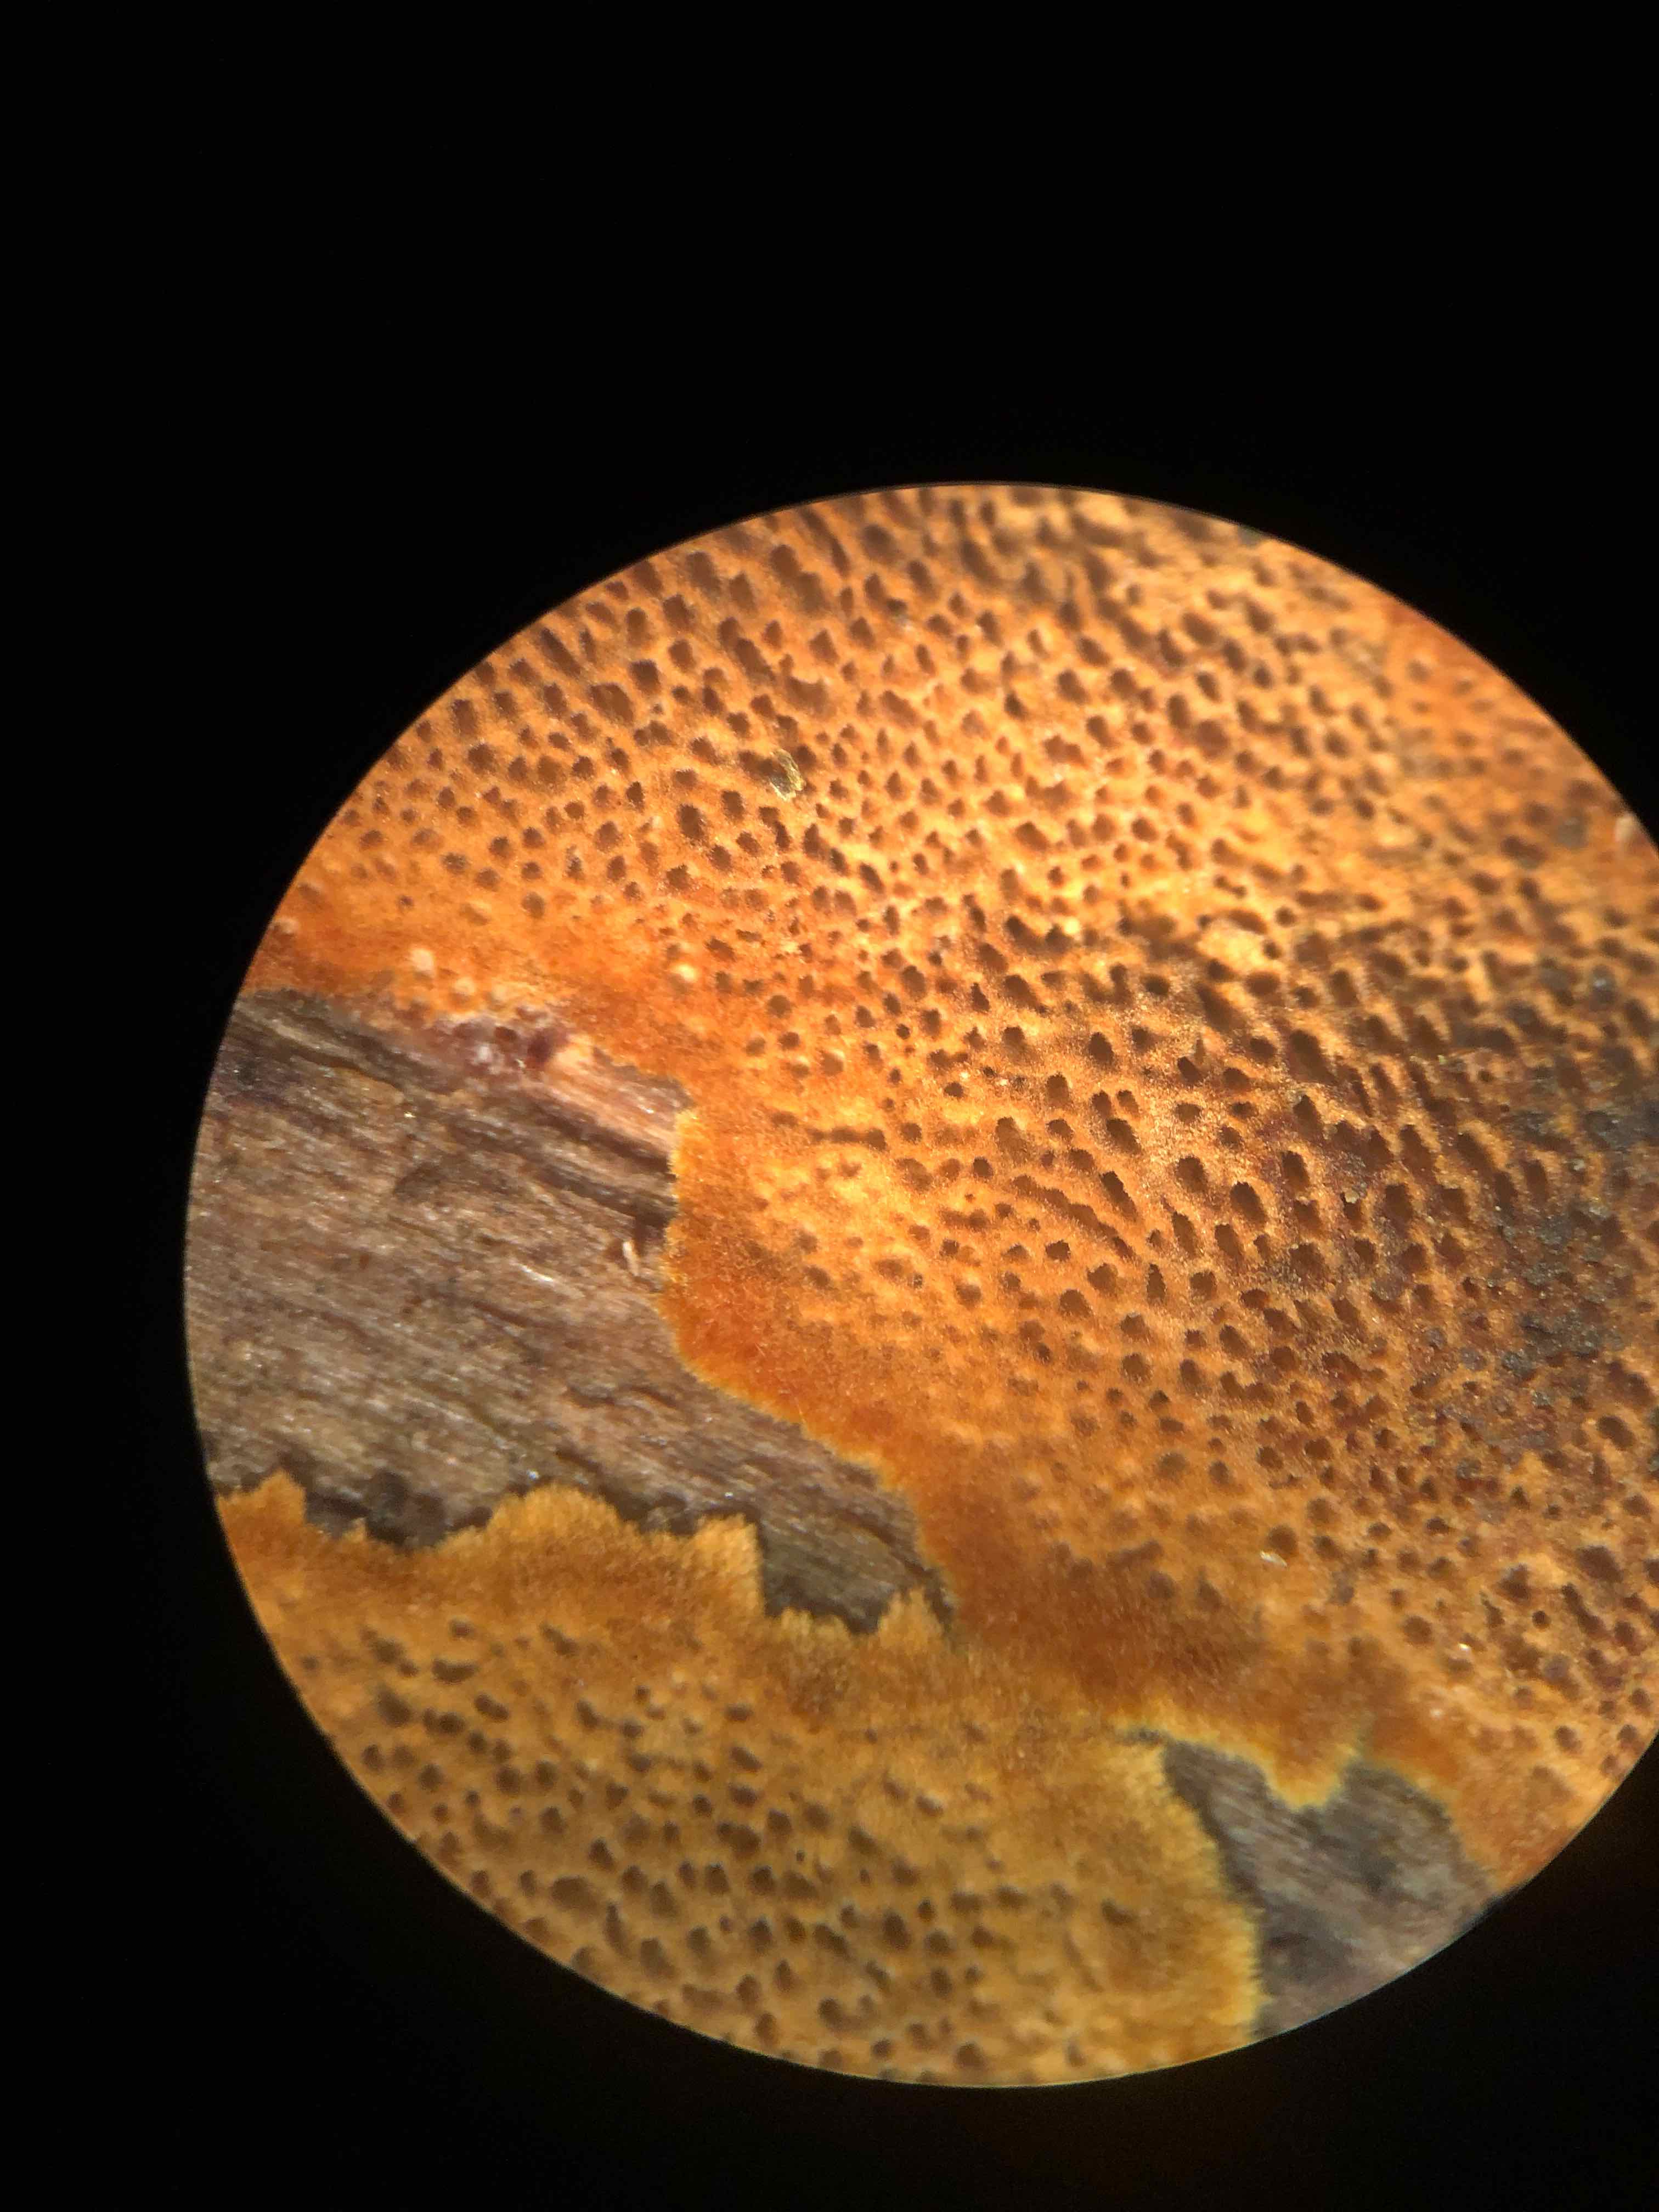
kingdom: Fungi
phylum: Basidiomycota
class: Agaricomycetes
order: Hymenochaetales
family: Hymenochaetaceae
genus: Fuscoporia
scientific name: Fuscoporia ferrea
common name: skorpe-ildporesvamp
